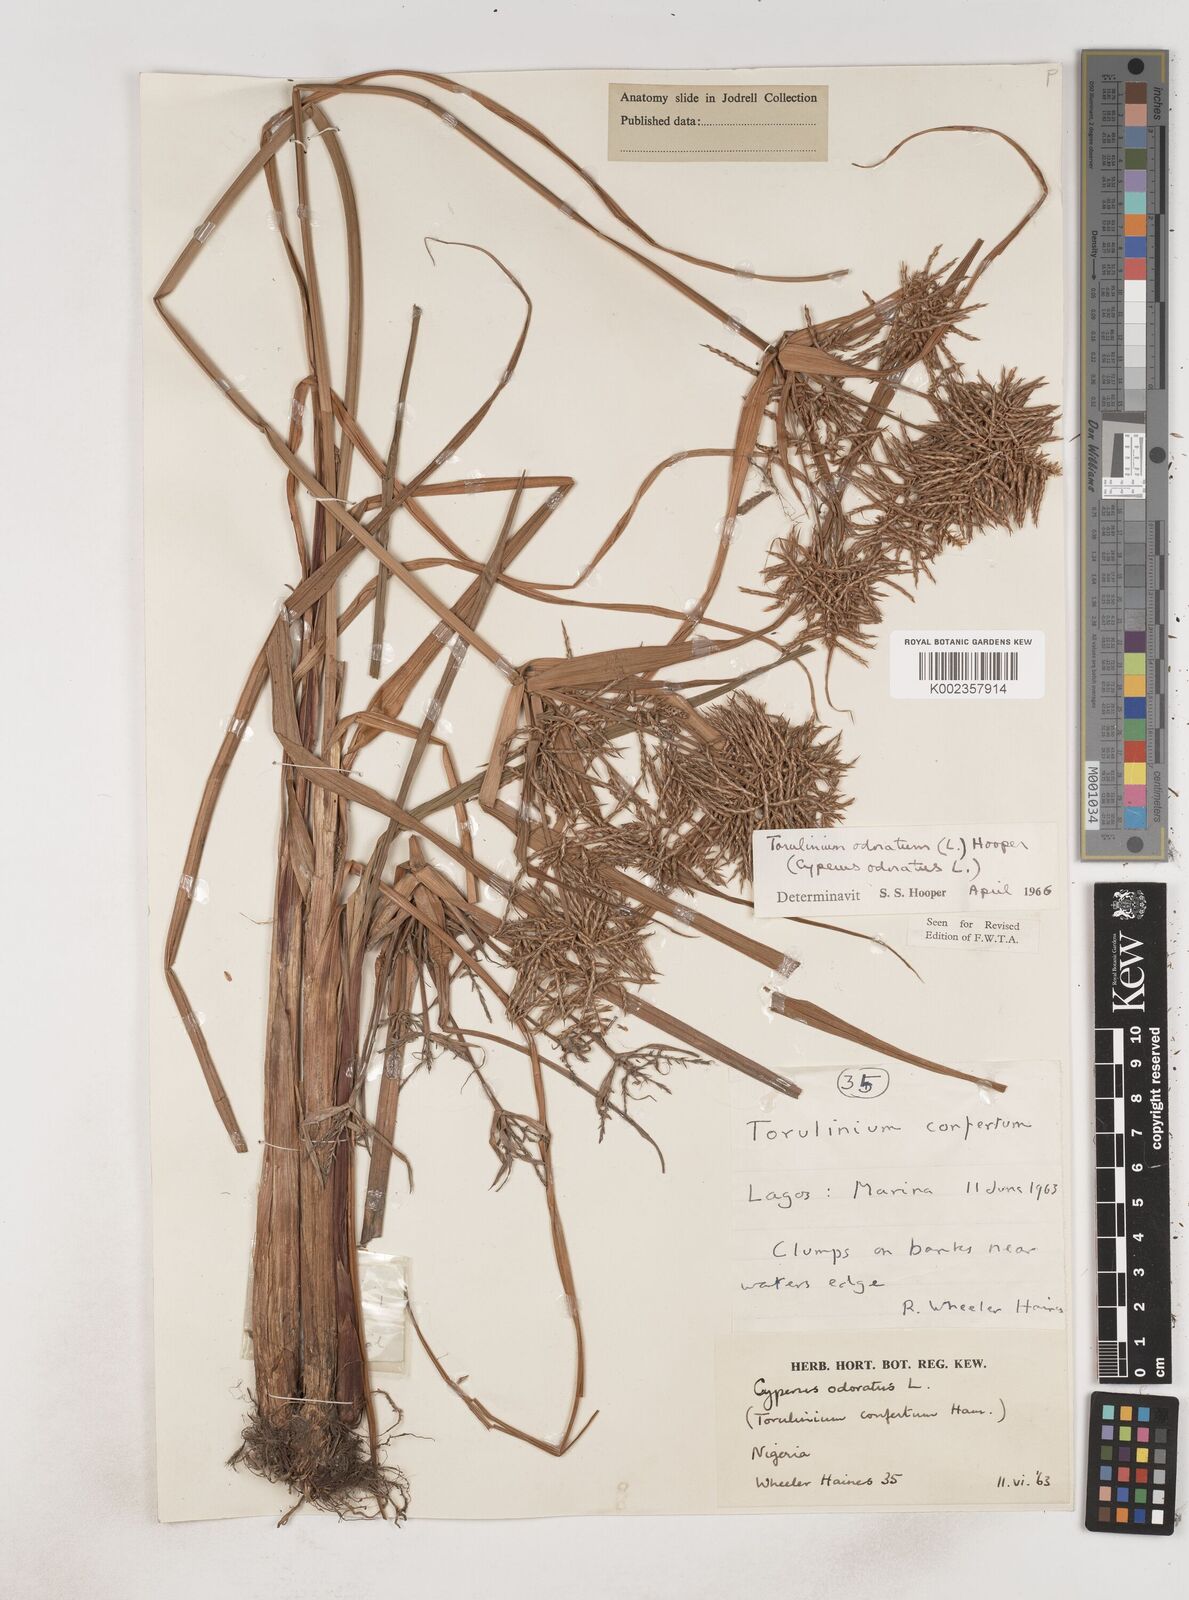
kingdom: Plantae
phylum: Tracheophyta
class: Liliopsida
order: Poales
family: Cyperaceae
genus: Cyperus
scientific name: Cyperus odoratus
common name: Fragrant flatsedge
